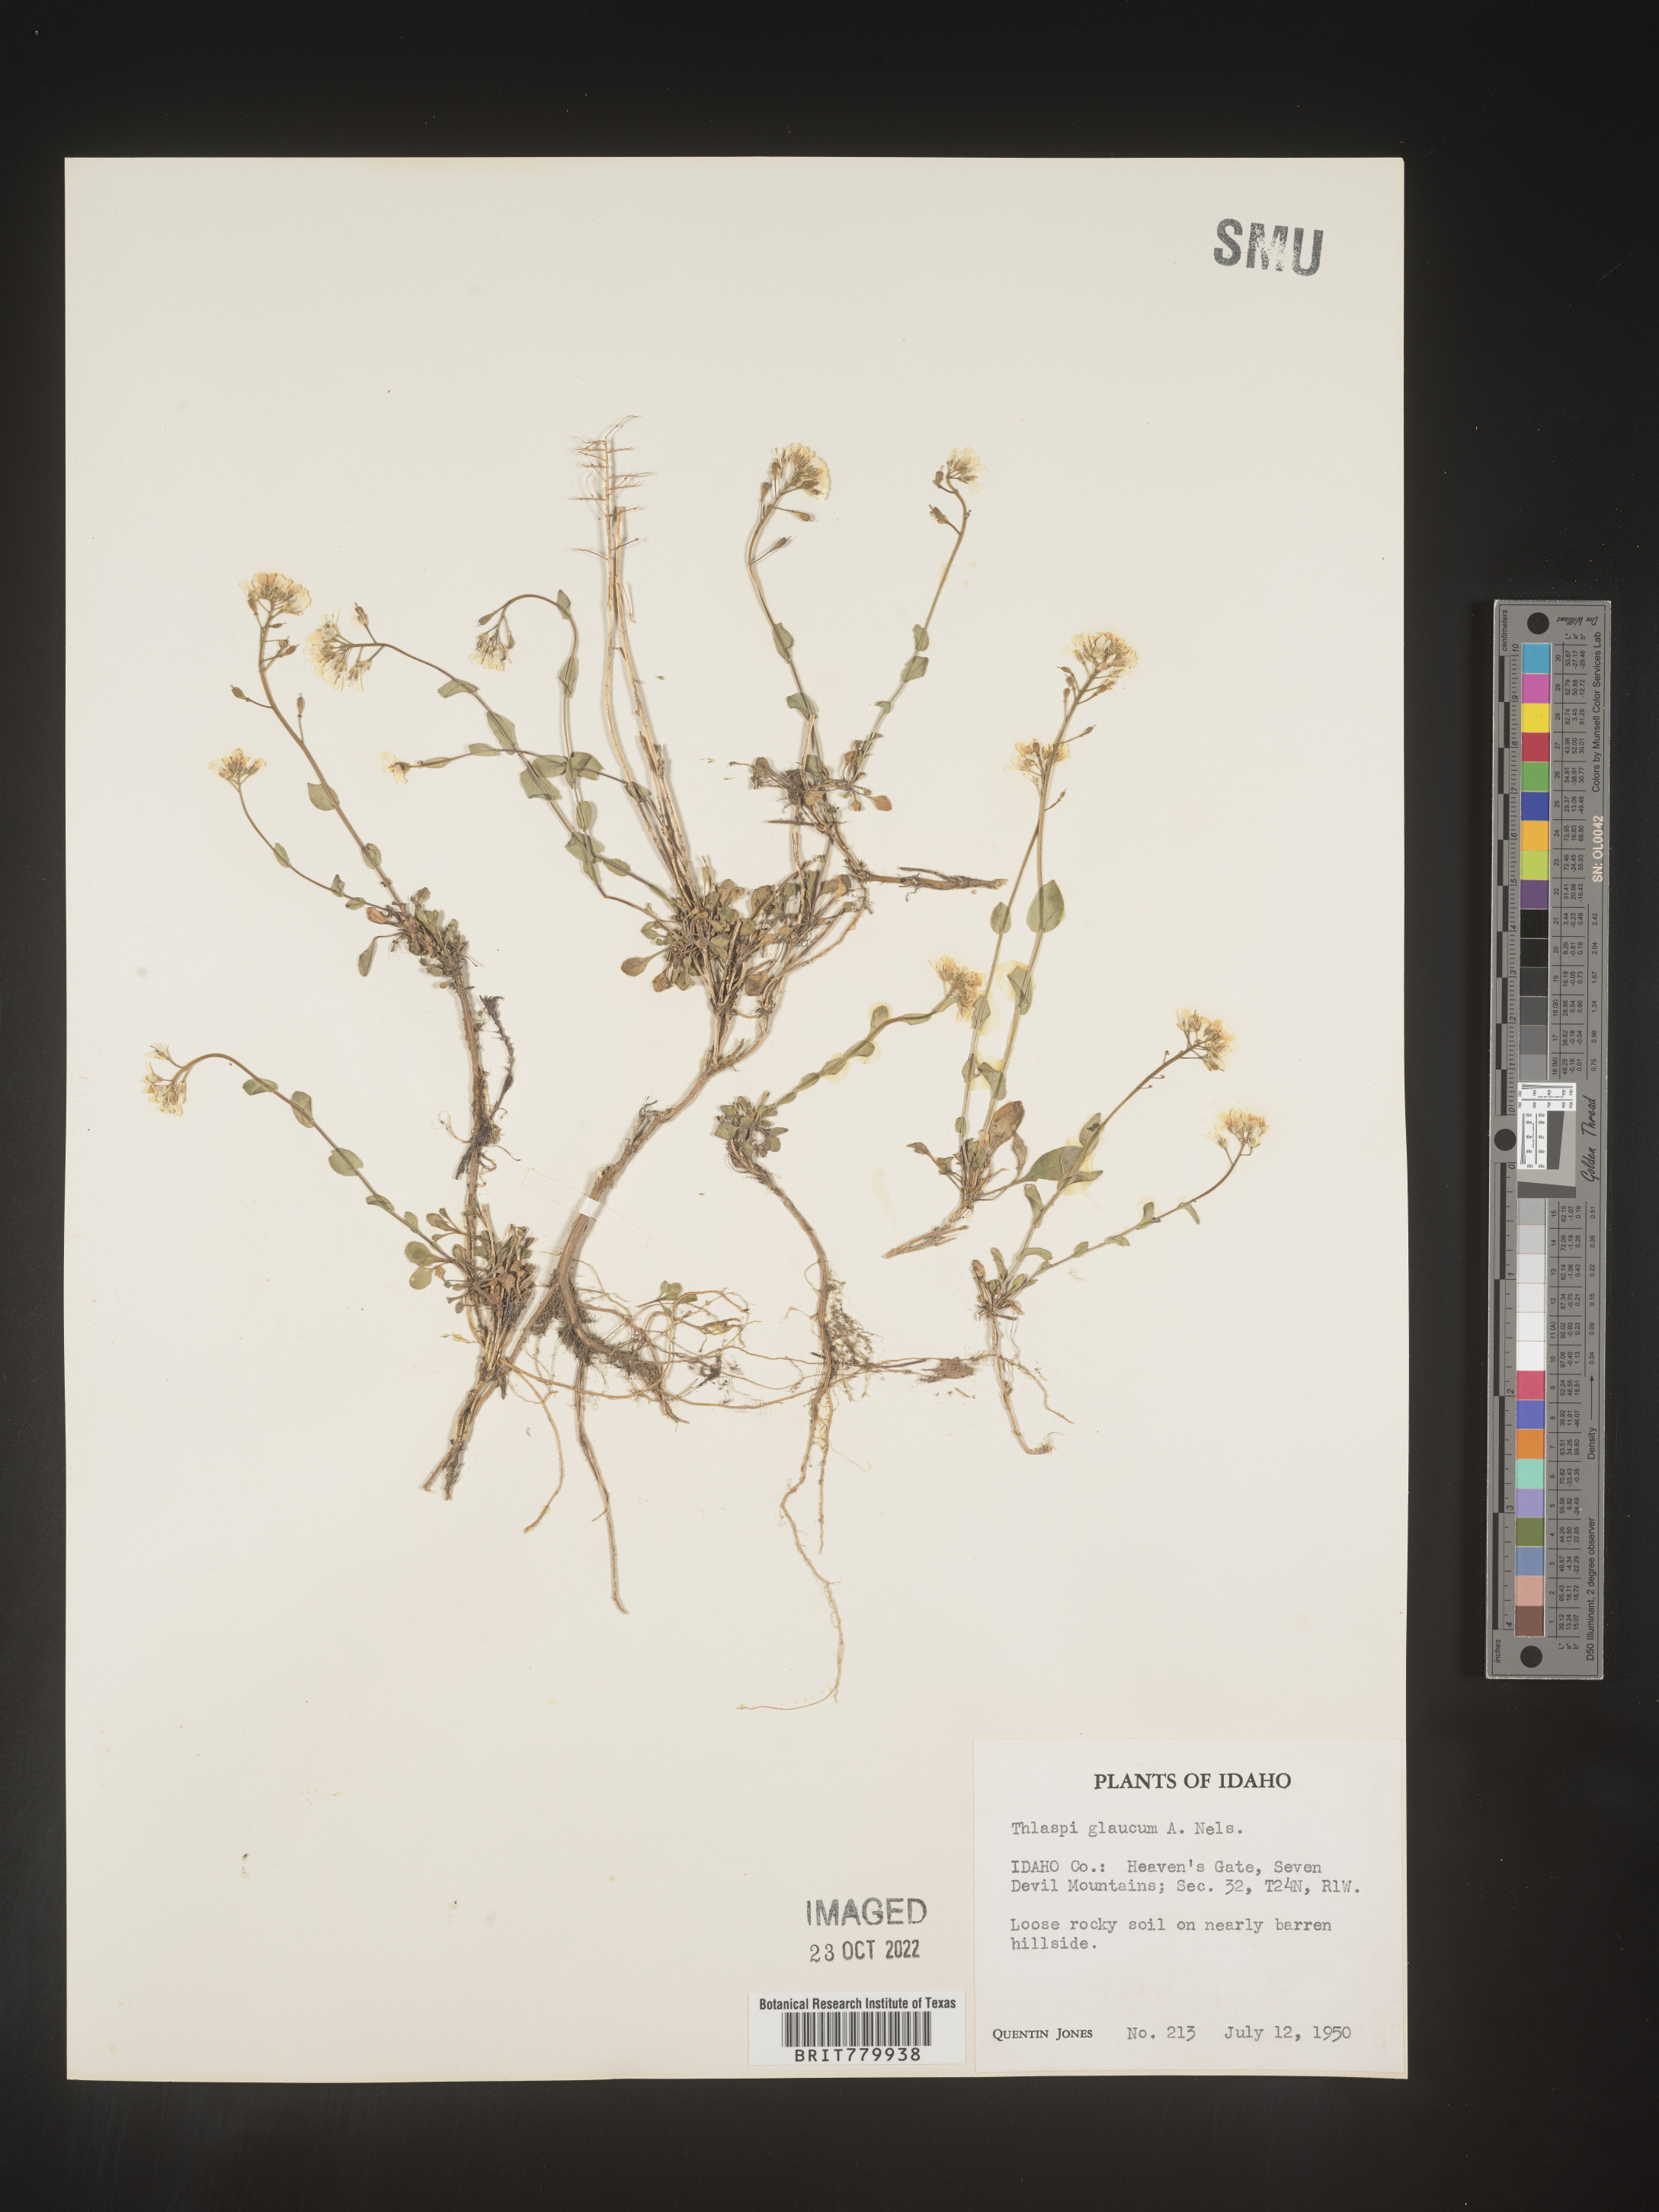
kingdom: Plantae
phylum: Tracheophyta
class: Magnoliopsida
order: Brassicales
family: Brassicaceae
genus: Thlaspi
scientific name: Thlaspi
